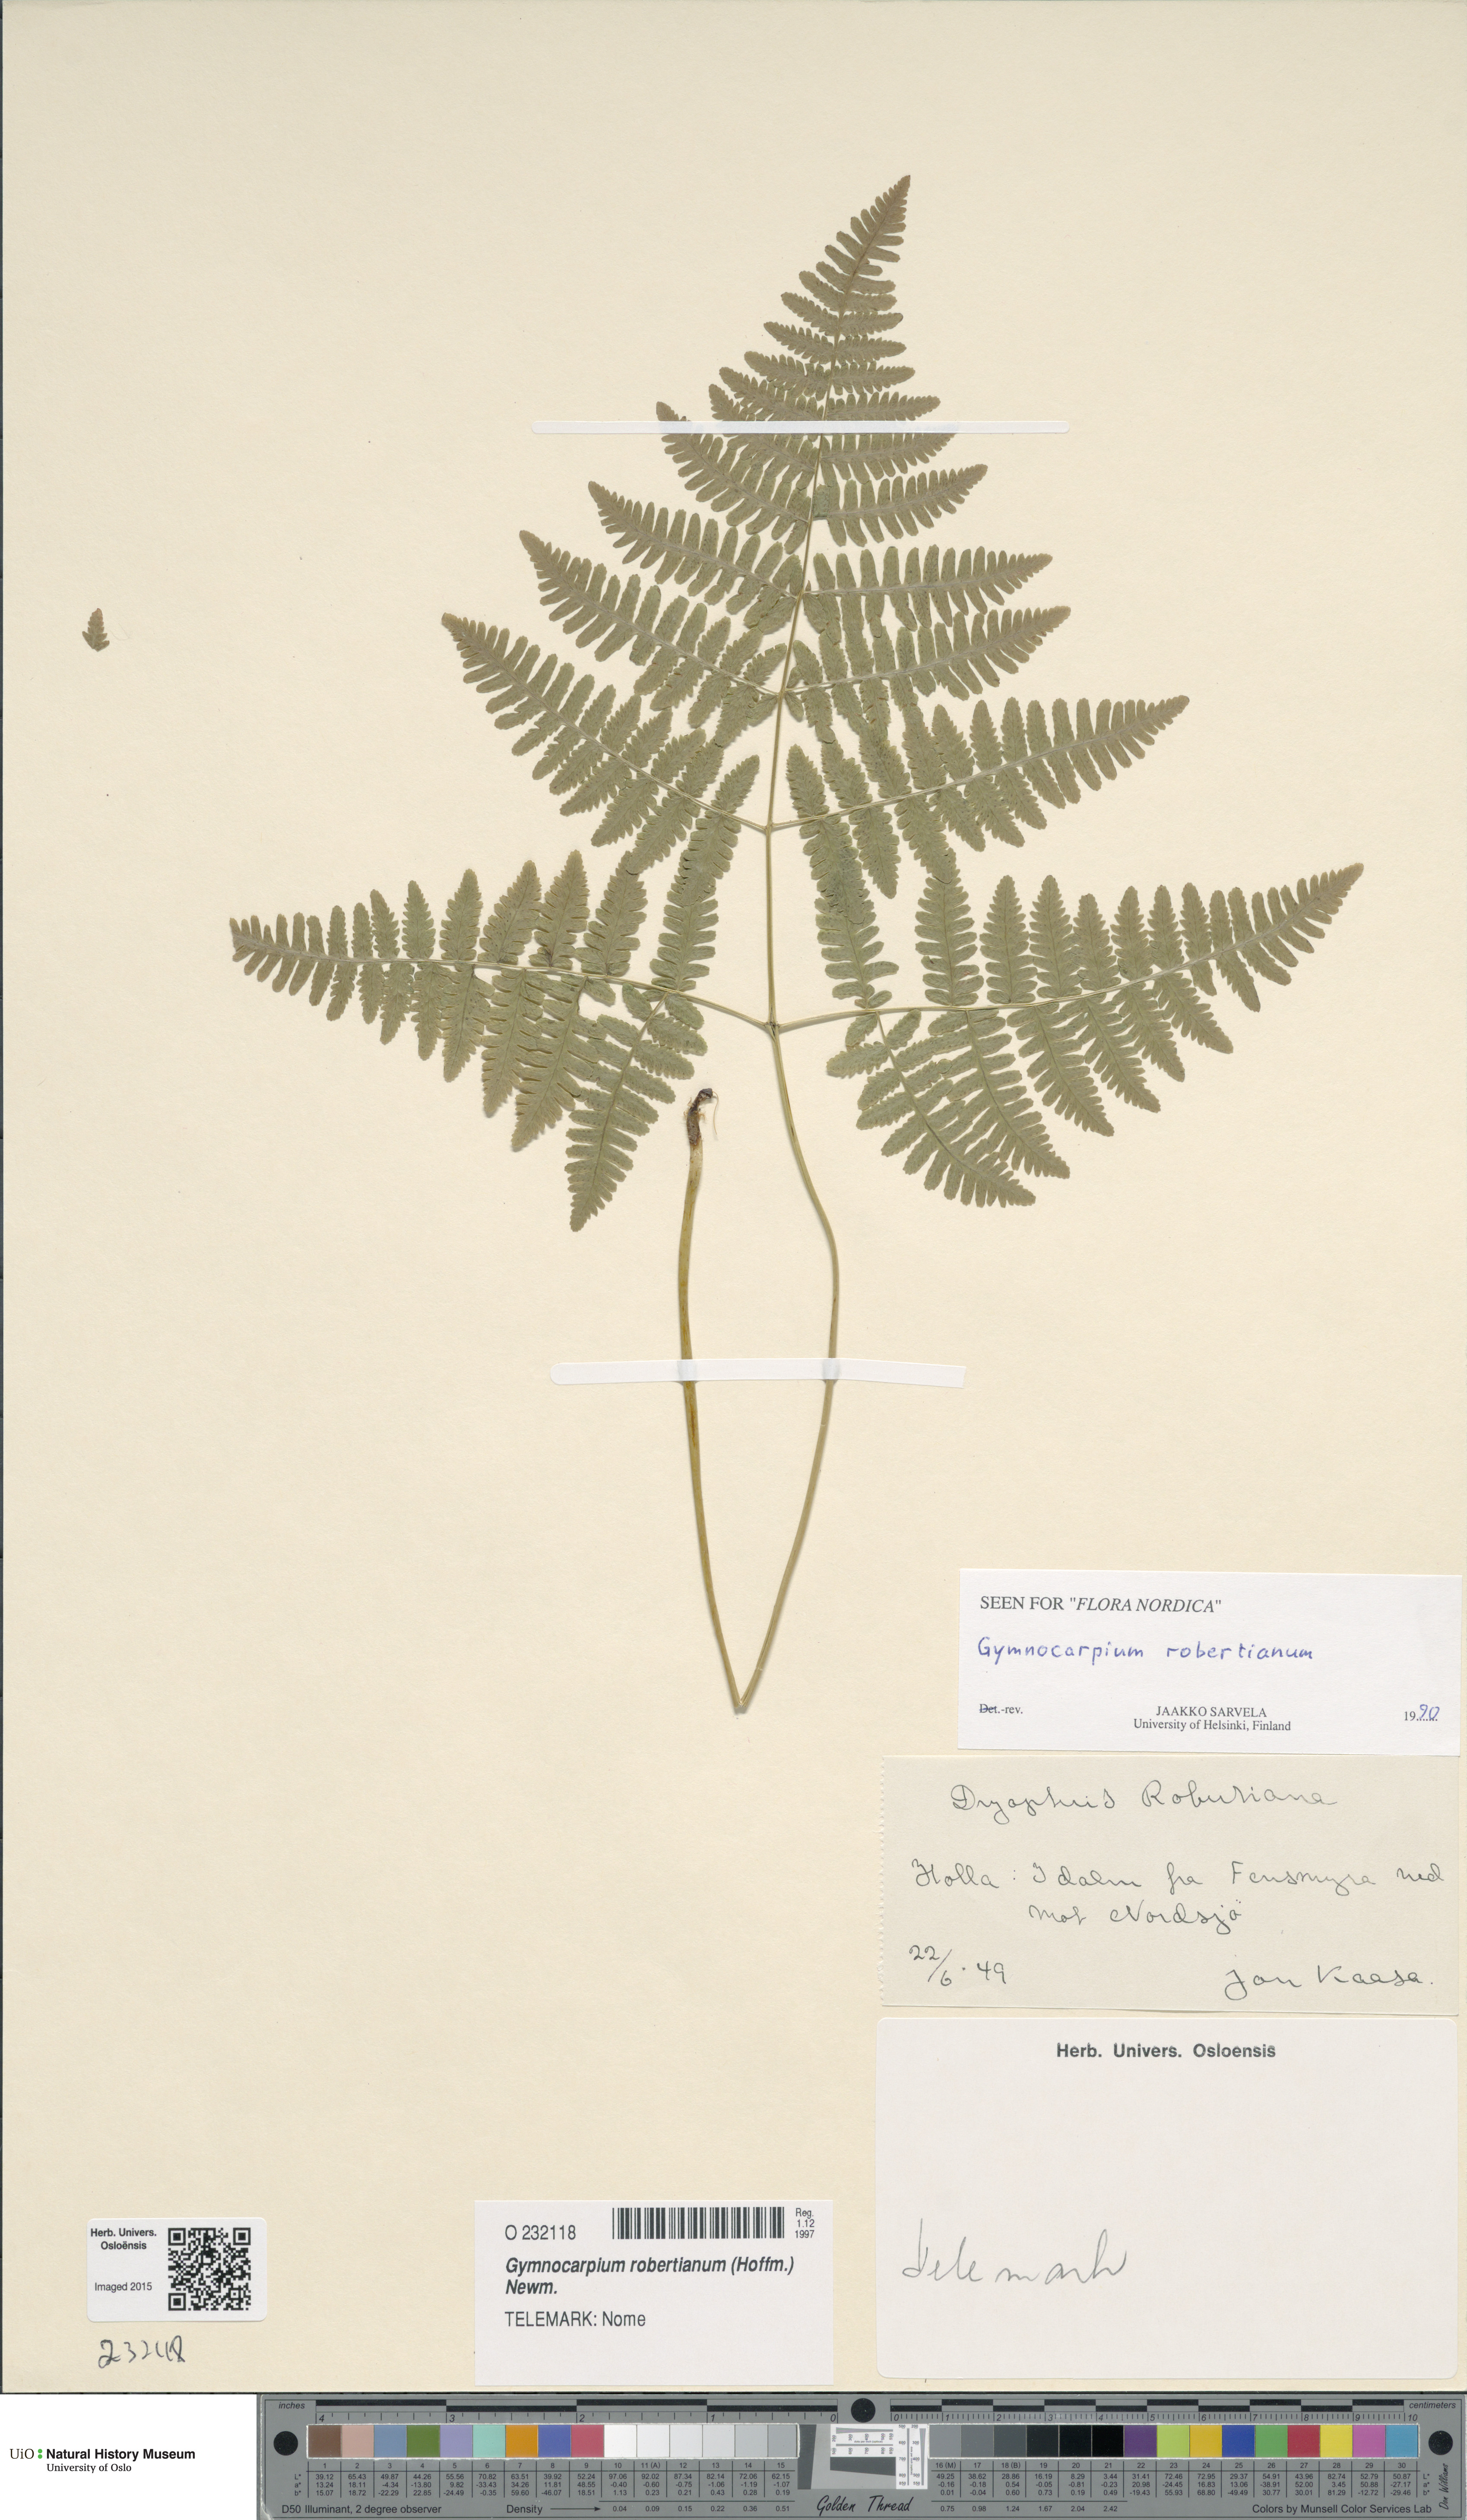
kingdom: Plantae
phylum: Tracheophyta
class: Polypodiopsida
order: Polypodiales
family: Cystopteridaceae
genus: Gymnocarpium
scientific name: Gymnocarpium robertianum
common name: Limestone fern
